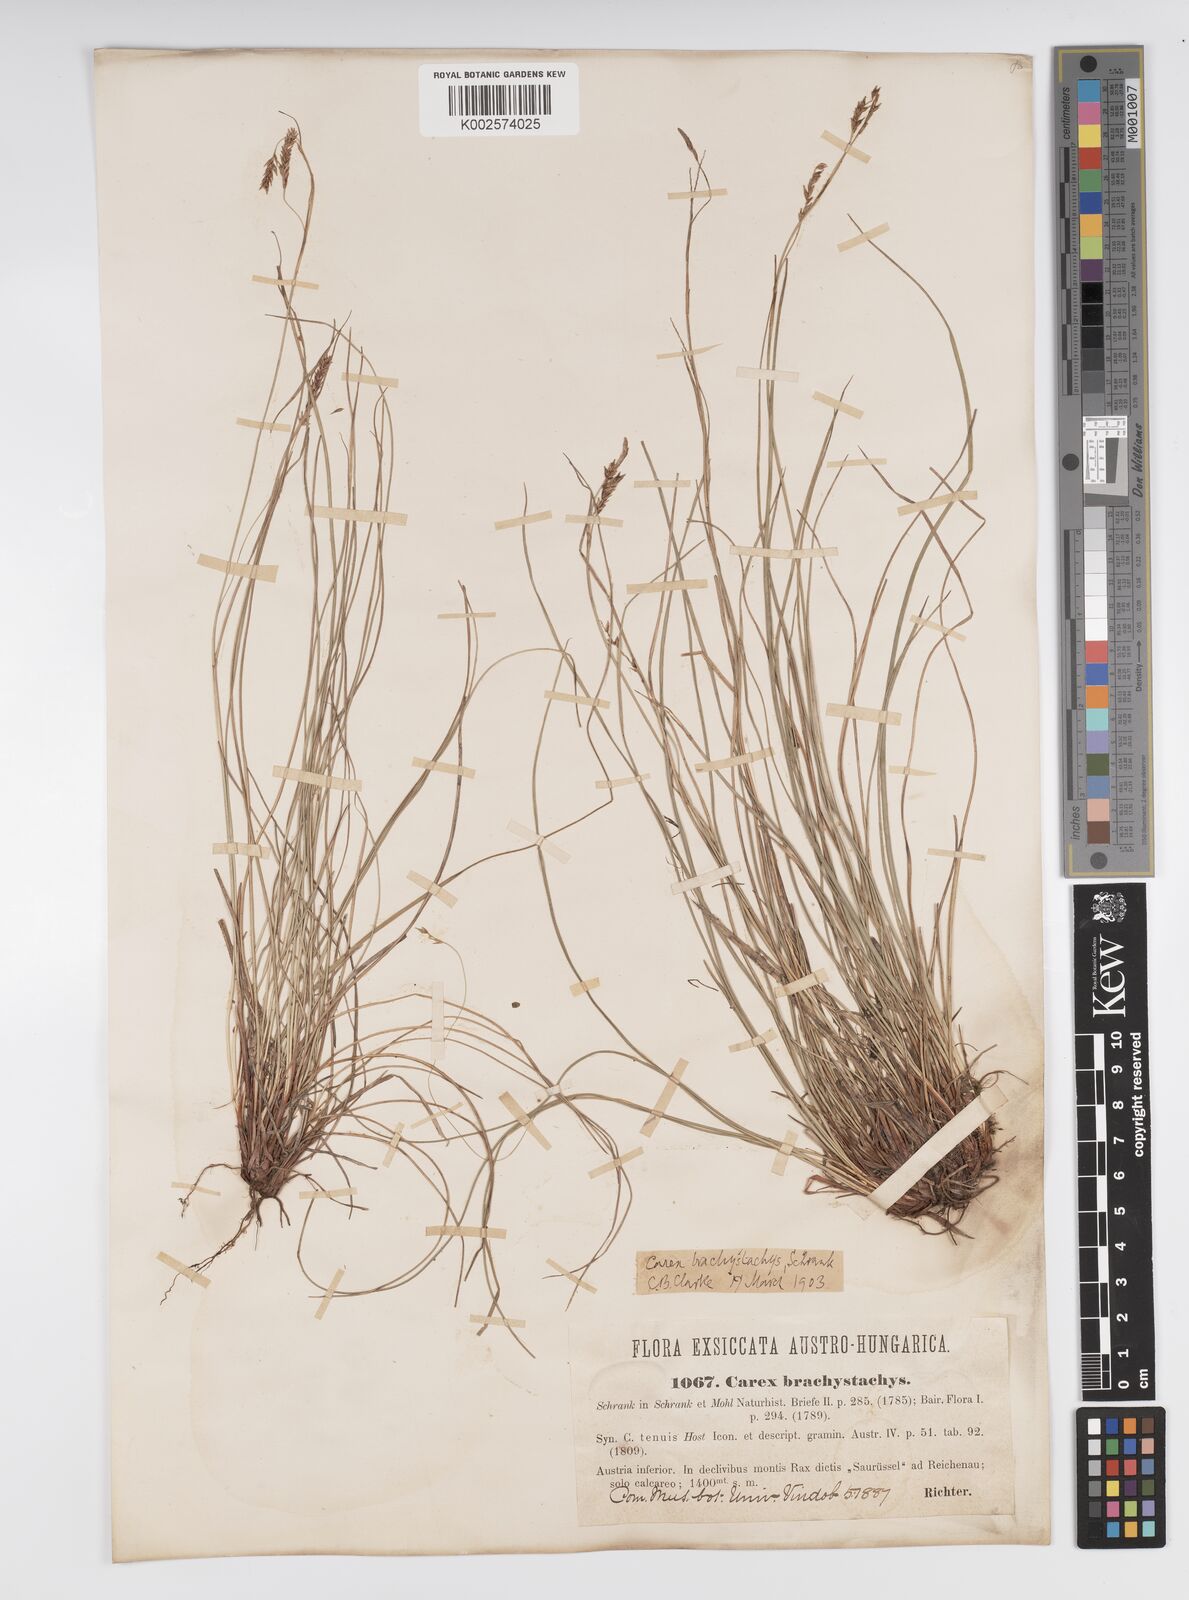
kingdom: Plantae
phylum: Tracheophyta
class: Liliopsida
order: Poales
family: Cyperaceae
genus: Carex
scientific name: Carex brachystachys
